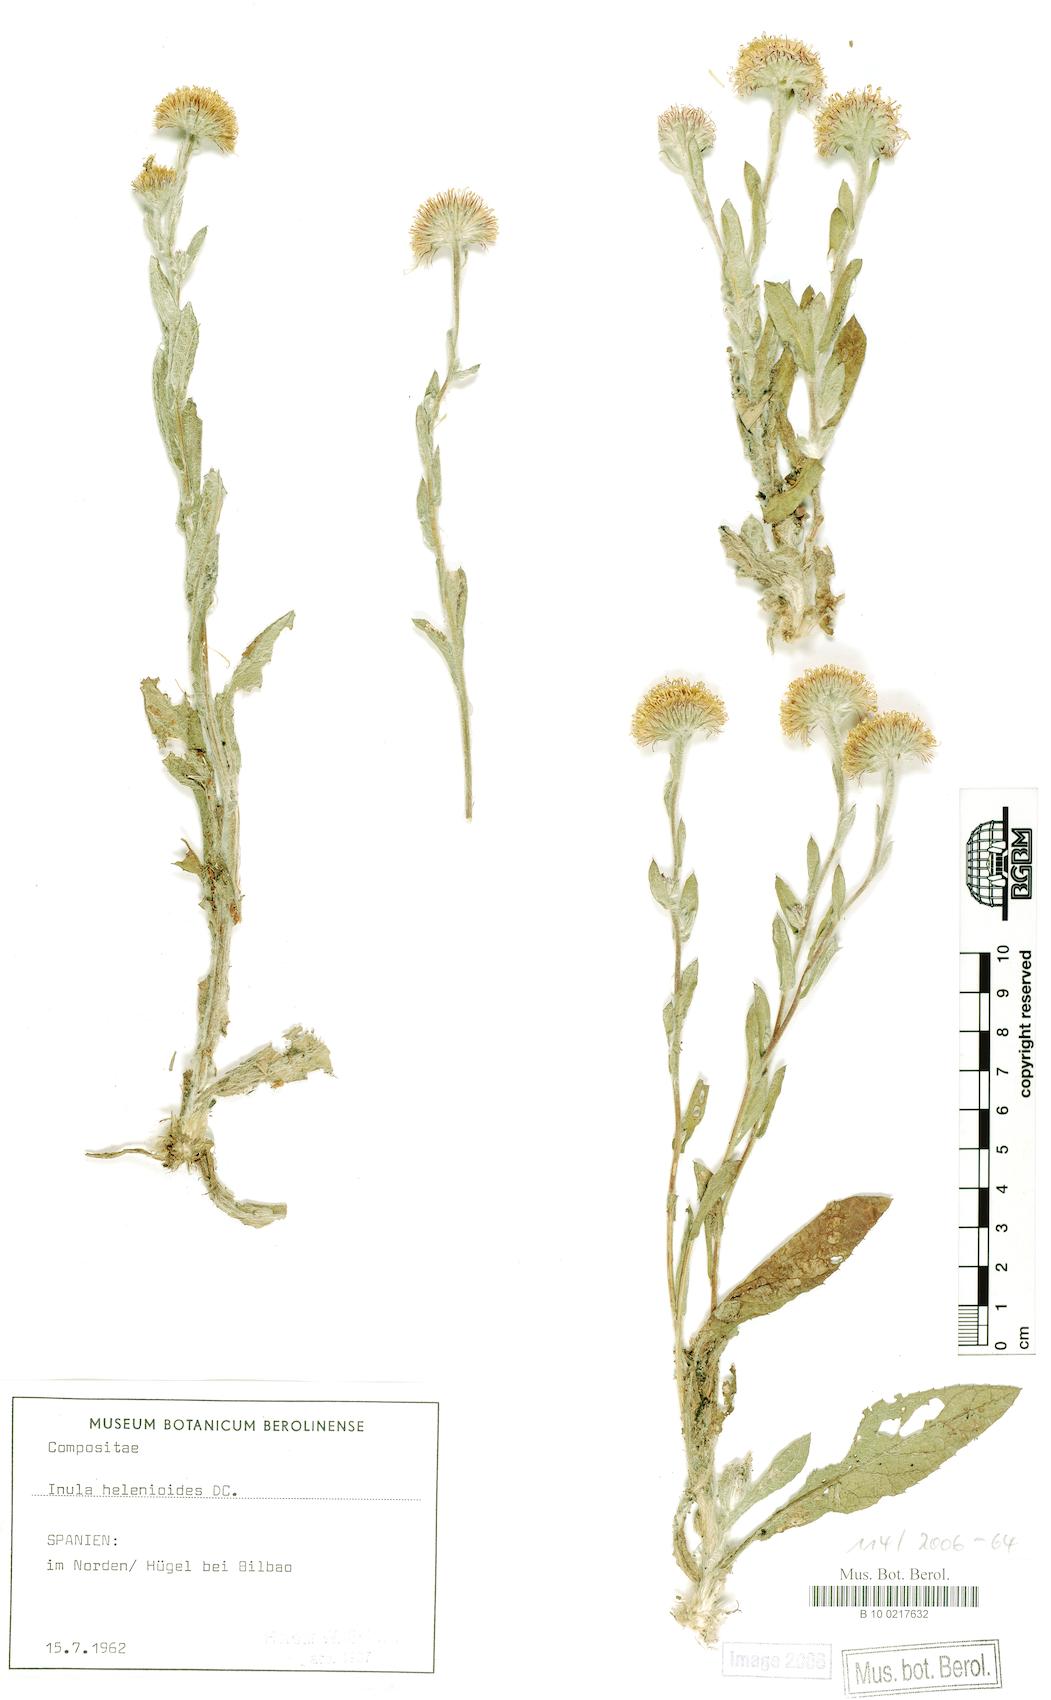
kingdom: Plantae
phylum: Tracheophyta
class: Magnoliopsida
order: Asterales
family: Asteraceae
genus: Pentanema
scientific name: Pentanema helenioides
